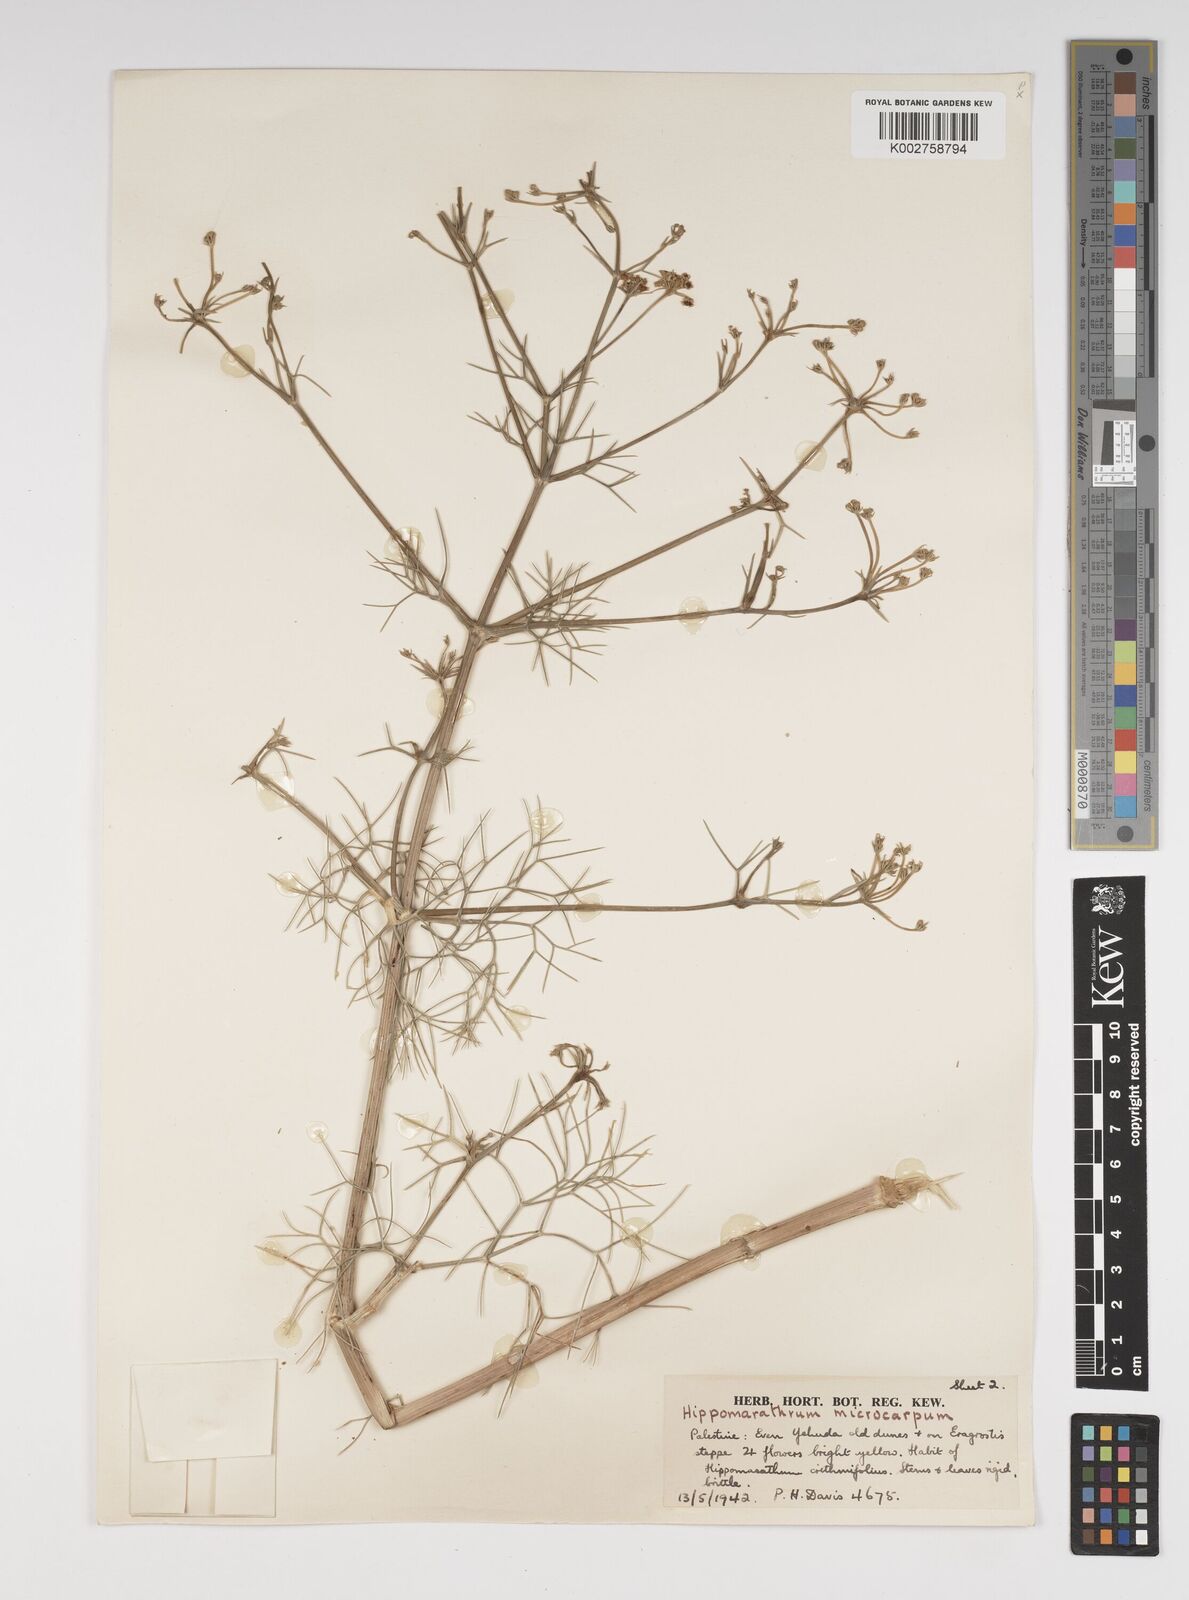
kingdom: Plantae
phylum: Tracheophyta
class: Magnoliopsida
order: Apiales
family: Apiaceae
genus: Bilacunaria
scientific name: Bilacunaria microcarpa
